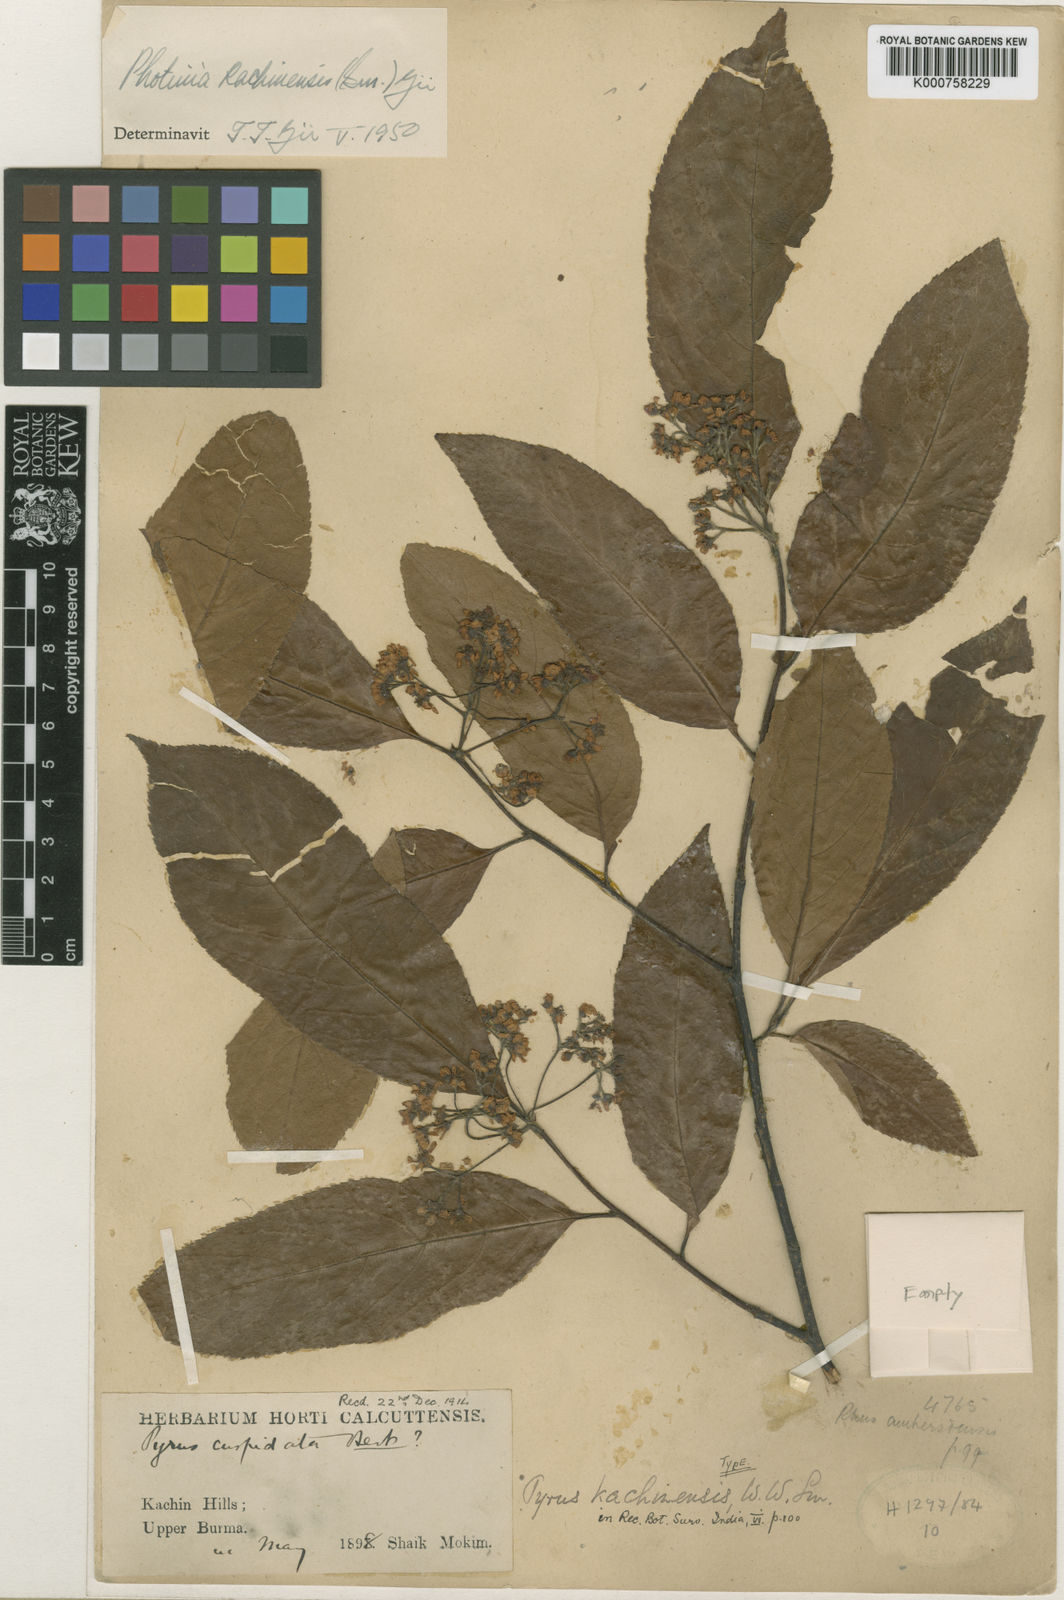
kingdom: Plantae
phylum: Tracheophyta
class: Magnoliopsida
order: Rosales
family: Rosaceae
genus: Micromeles
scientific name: Micromeles cuspidata
